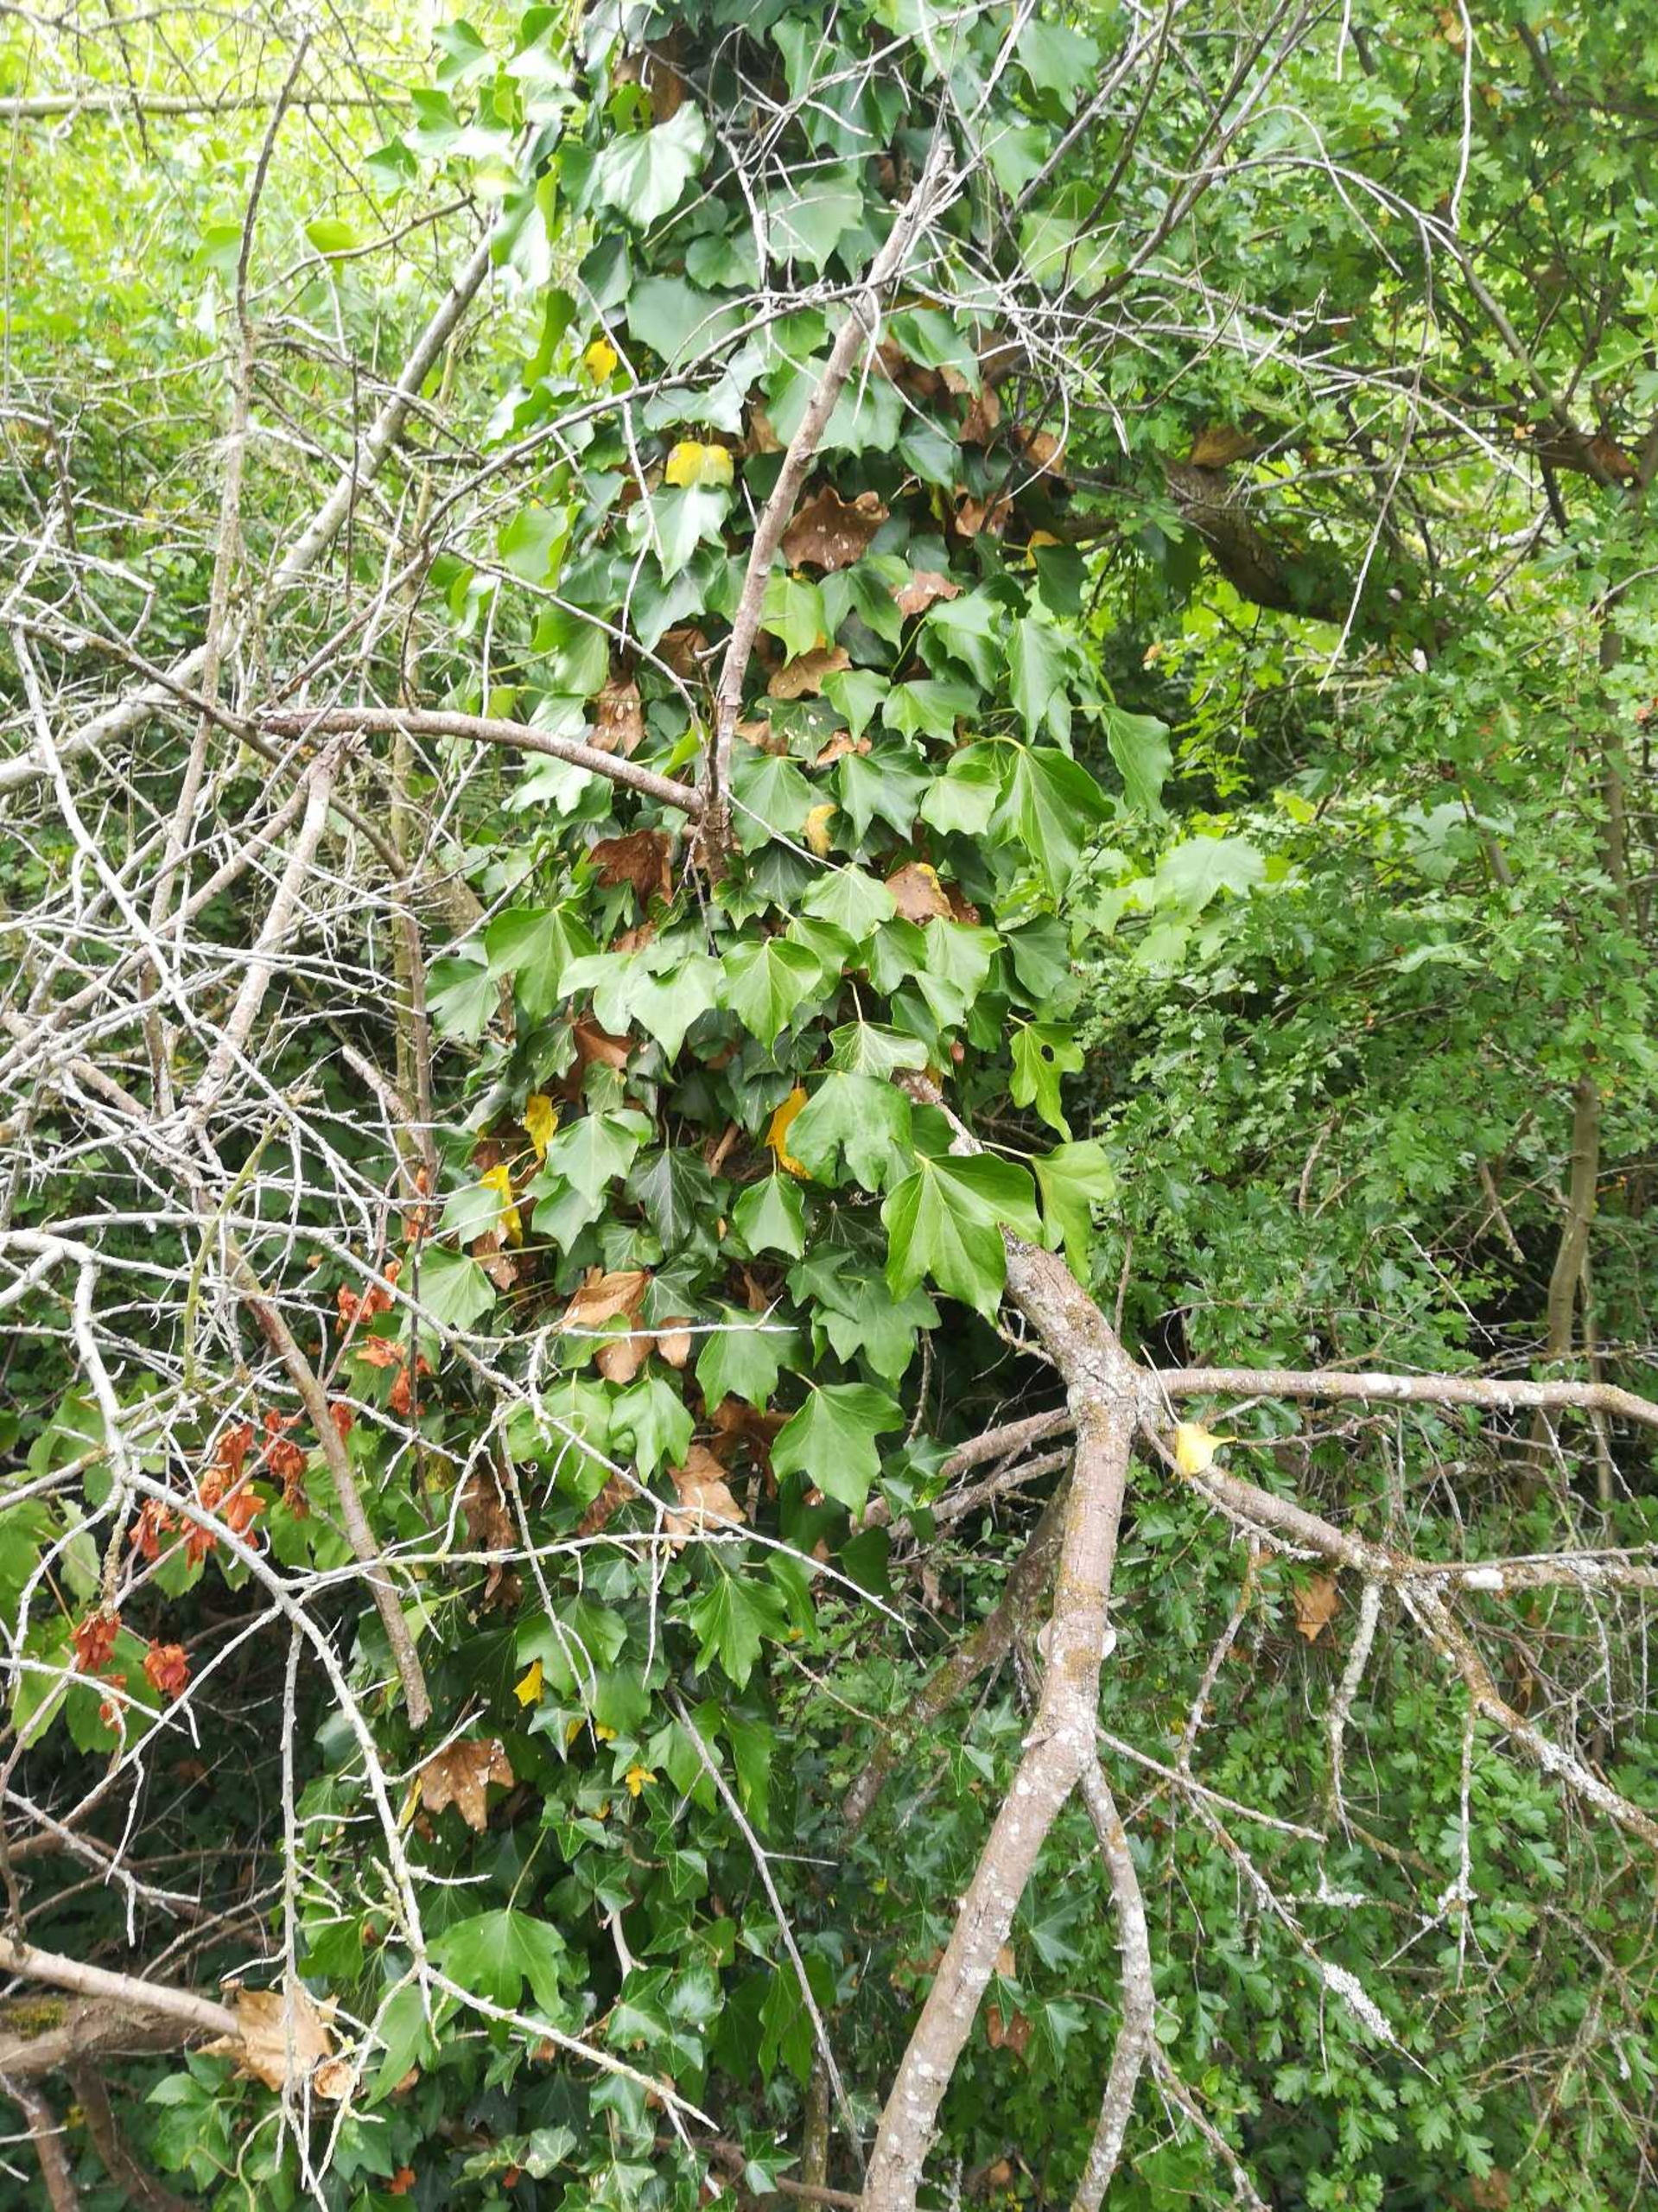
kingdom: Plantae
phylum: Tracheophyta
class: Magnoliopsida
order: Apiales
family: Araliaceae
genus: Hedera
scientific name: Hedera helix
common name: Vedbend
